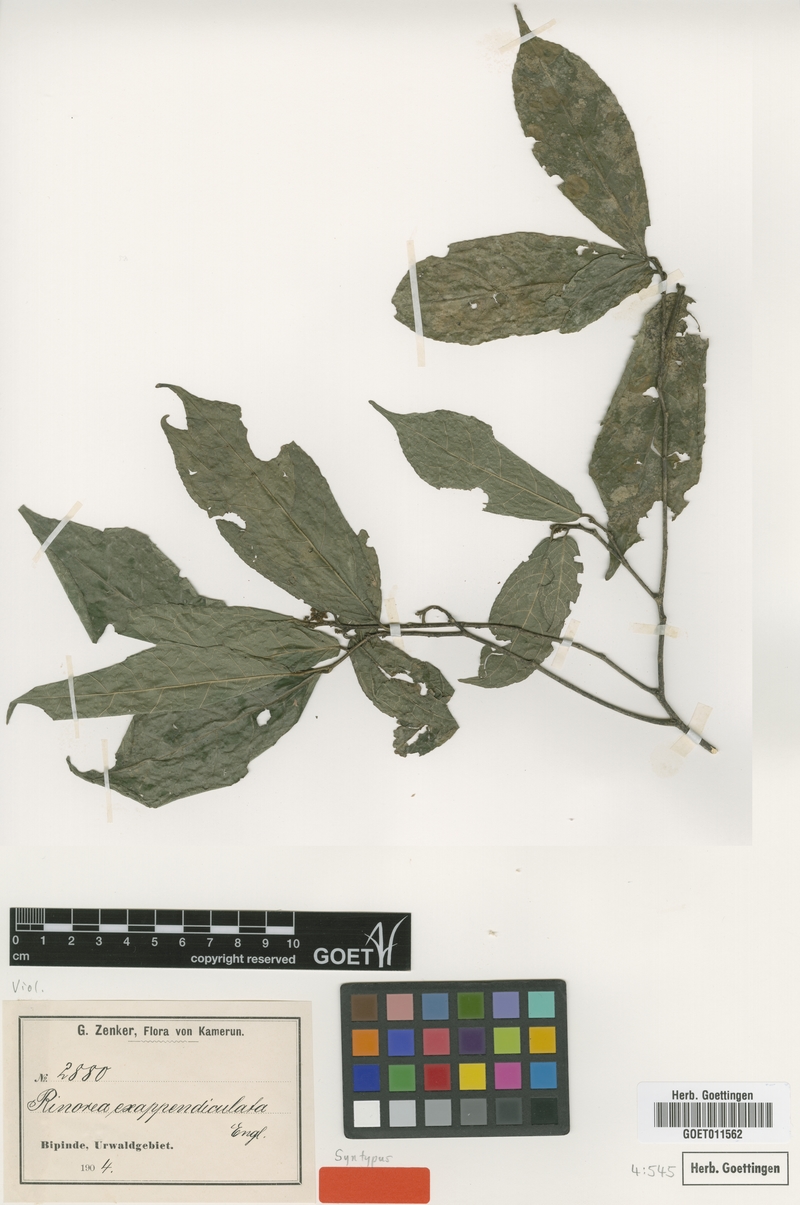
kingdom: Plantae
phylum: Tracheophyta
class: Magnoliopsida
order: Malpighiales
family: Violaceae
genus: Rinorea
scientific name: Rinorea exappendiculata
